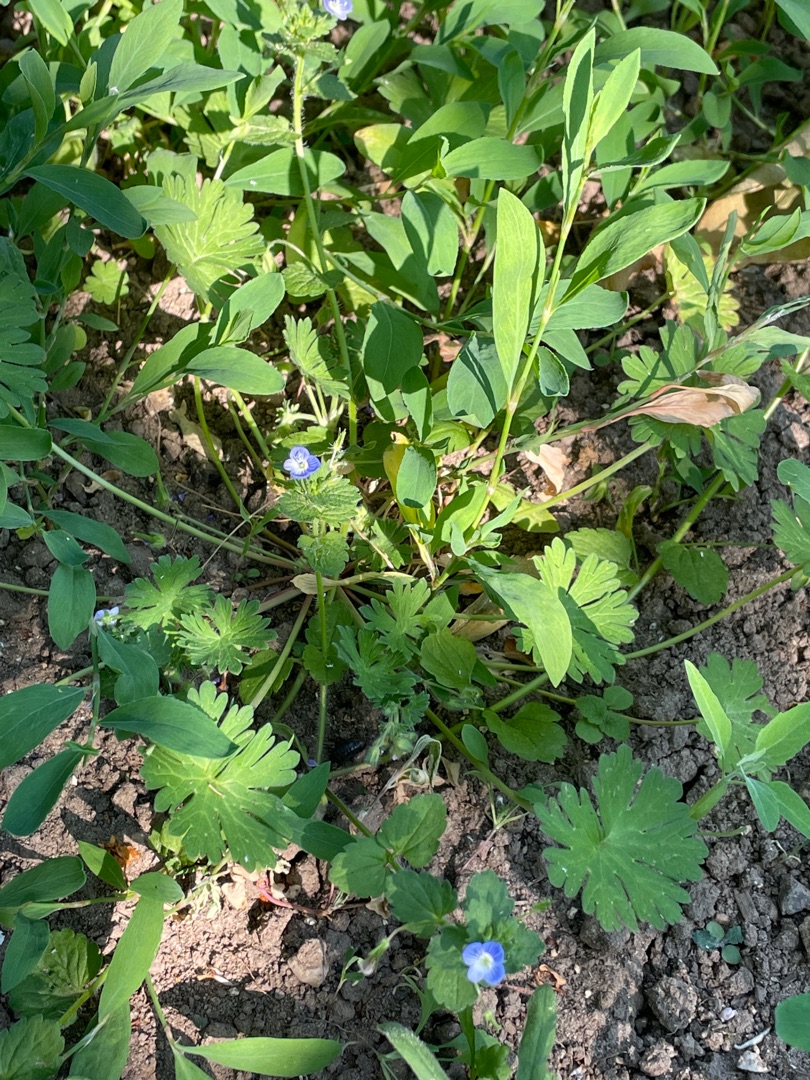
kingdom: Plantae
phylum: Tracheophyta
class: Magnoliopsida
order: Lamiales
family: Plantaginaceae
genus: Veronica
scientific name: Veronica chamaedrys
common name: Tveskægget ærenpris
